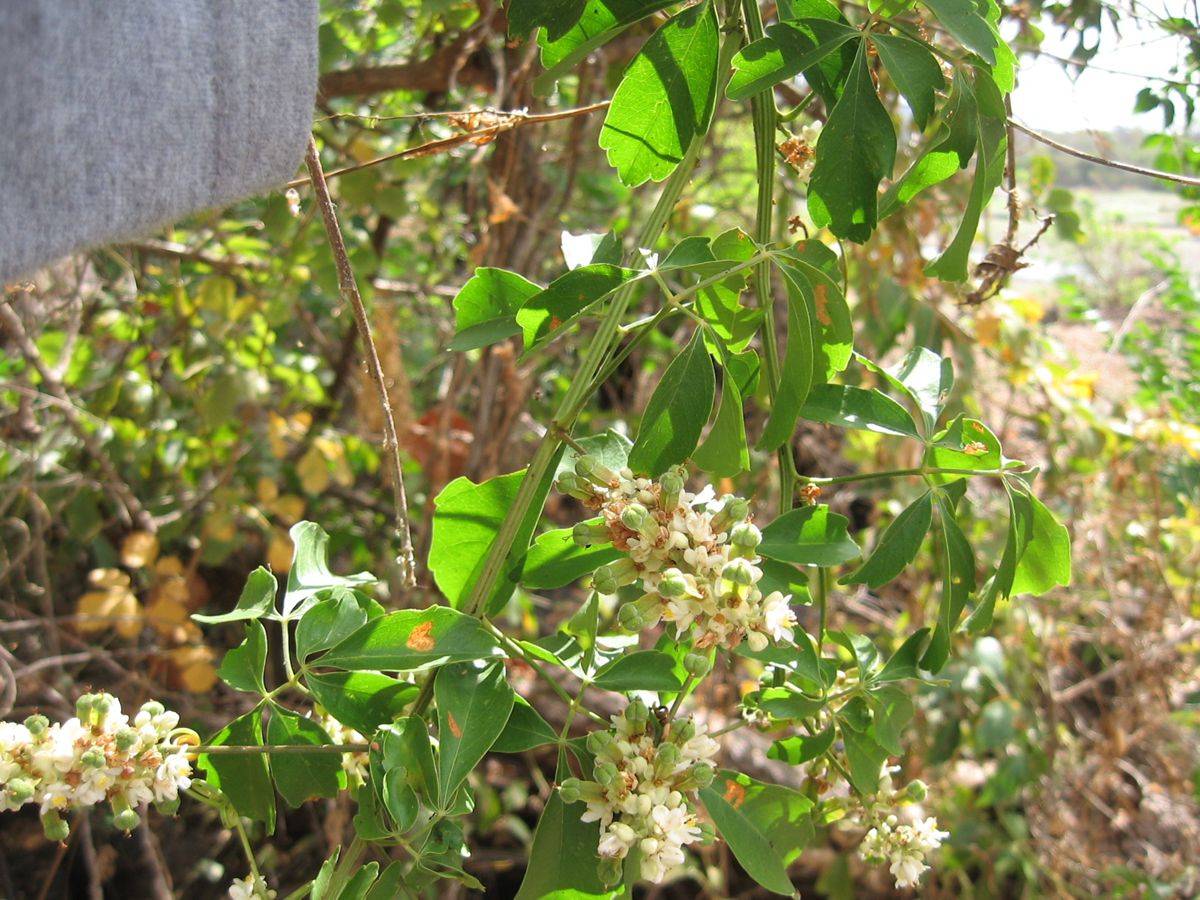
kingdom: Plantae
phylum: Tracheophyta
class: Magnoliopsida
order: Sapindales
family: Sapindaceae
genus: Serjania
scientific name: Serjania paniculata
